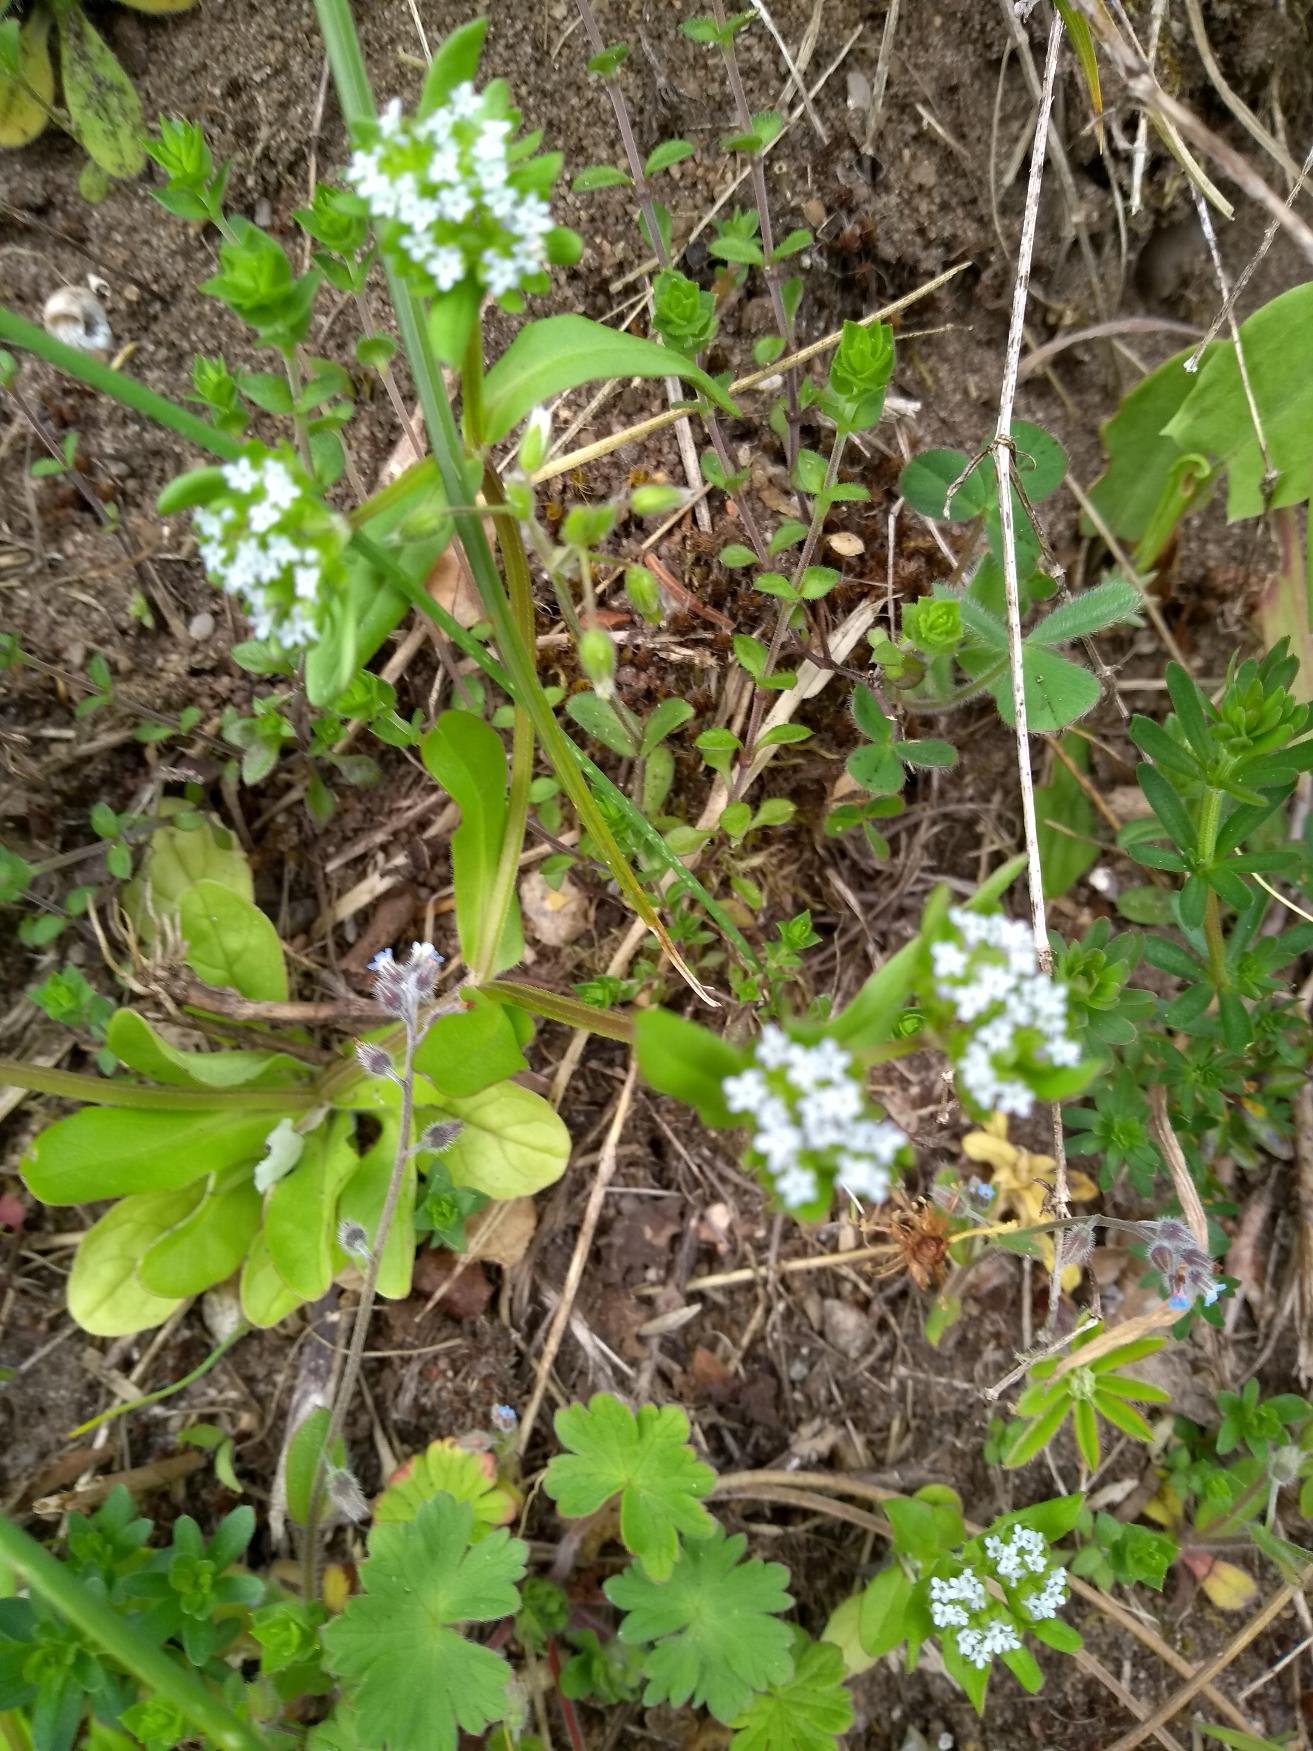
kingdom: Plantae
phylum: Tracheophyta
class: Magnoliopsida
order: Dipsacales
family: Caprifoliaceae
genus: Valerianella
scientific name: Valerianella locusta
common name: Tandfri vårsalat
